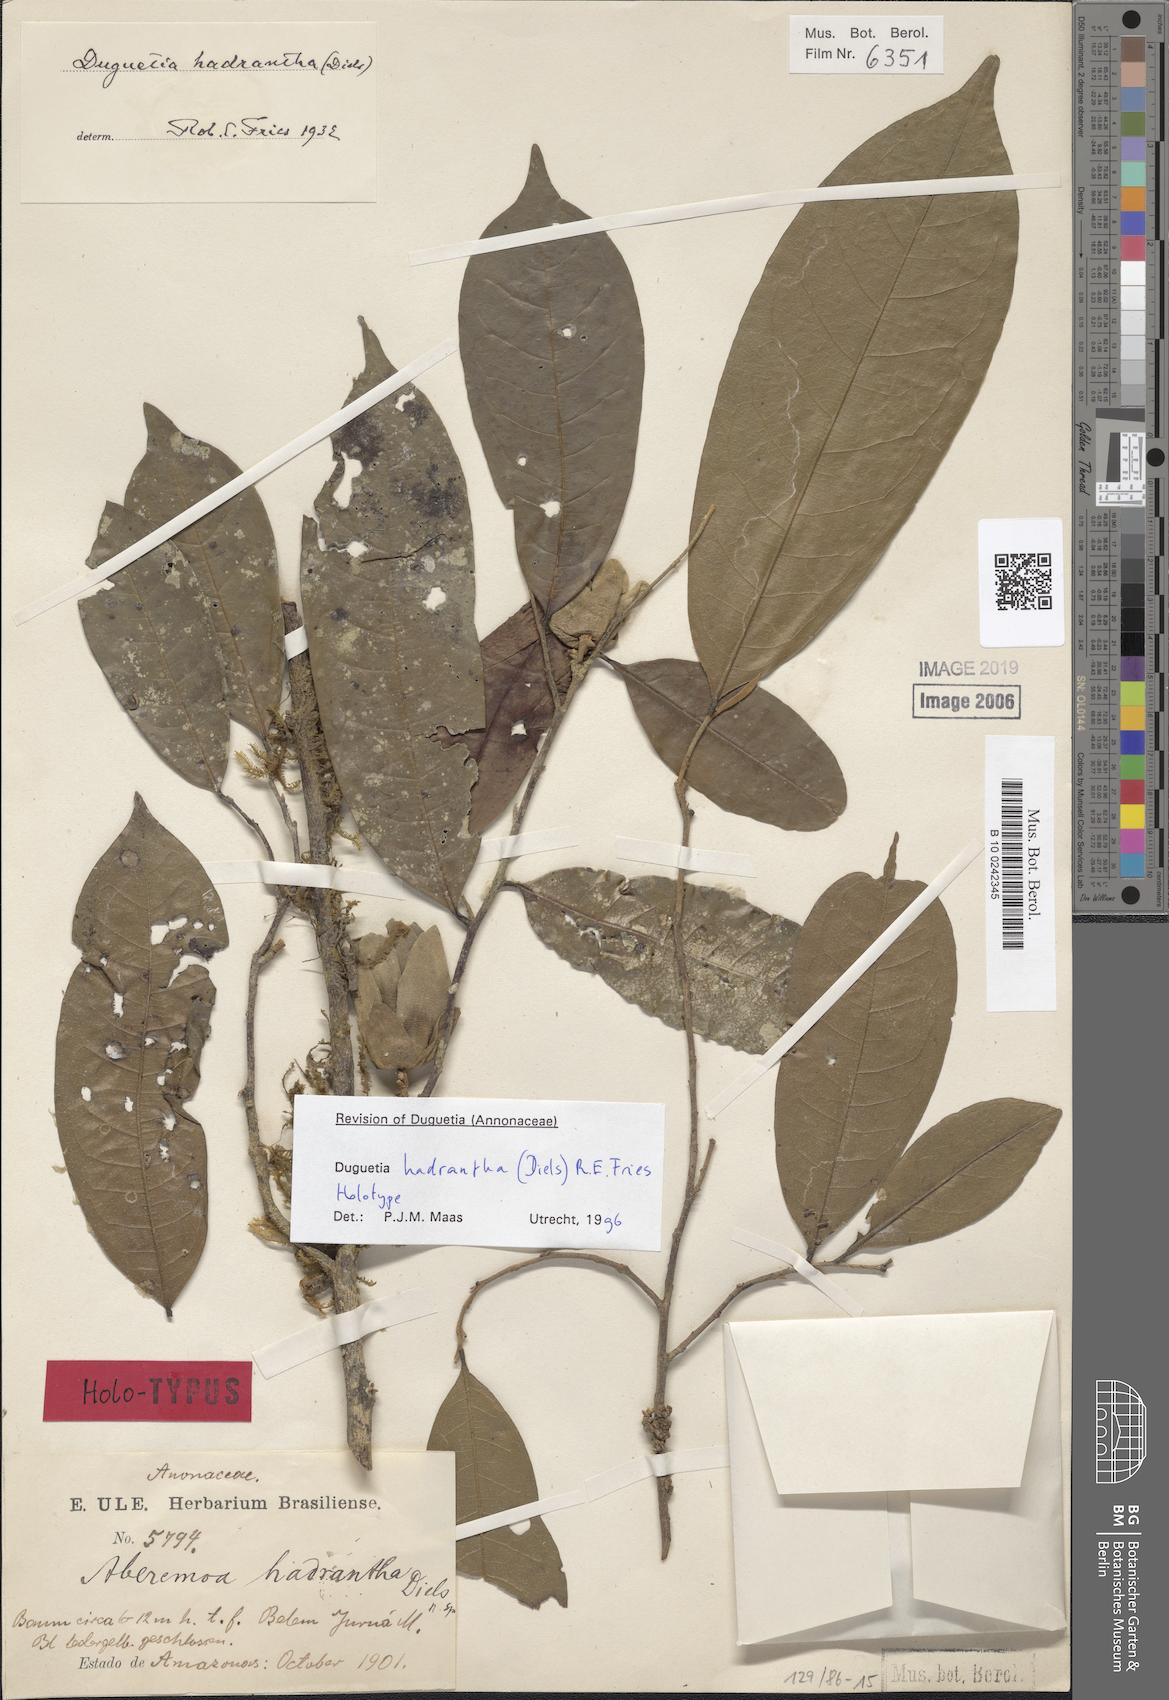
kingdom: Plantae
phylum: Tracheophyta
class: Magnoliopsida
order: Magnoliales
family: Annonaceae
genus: Duguetia
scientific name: Duguetia hadrantha
